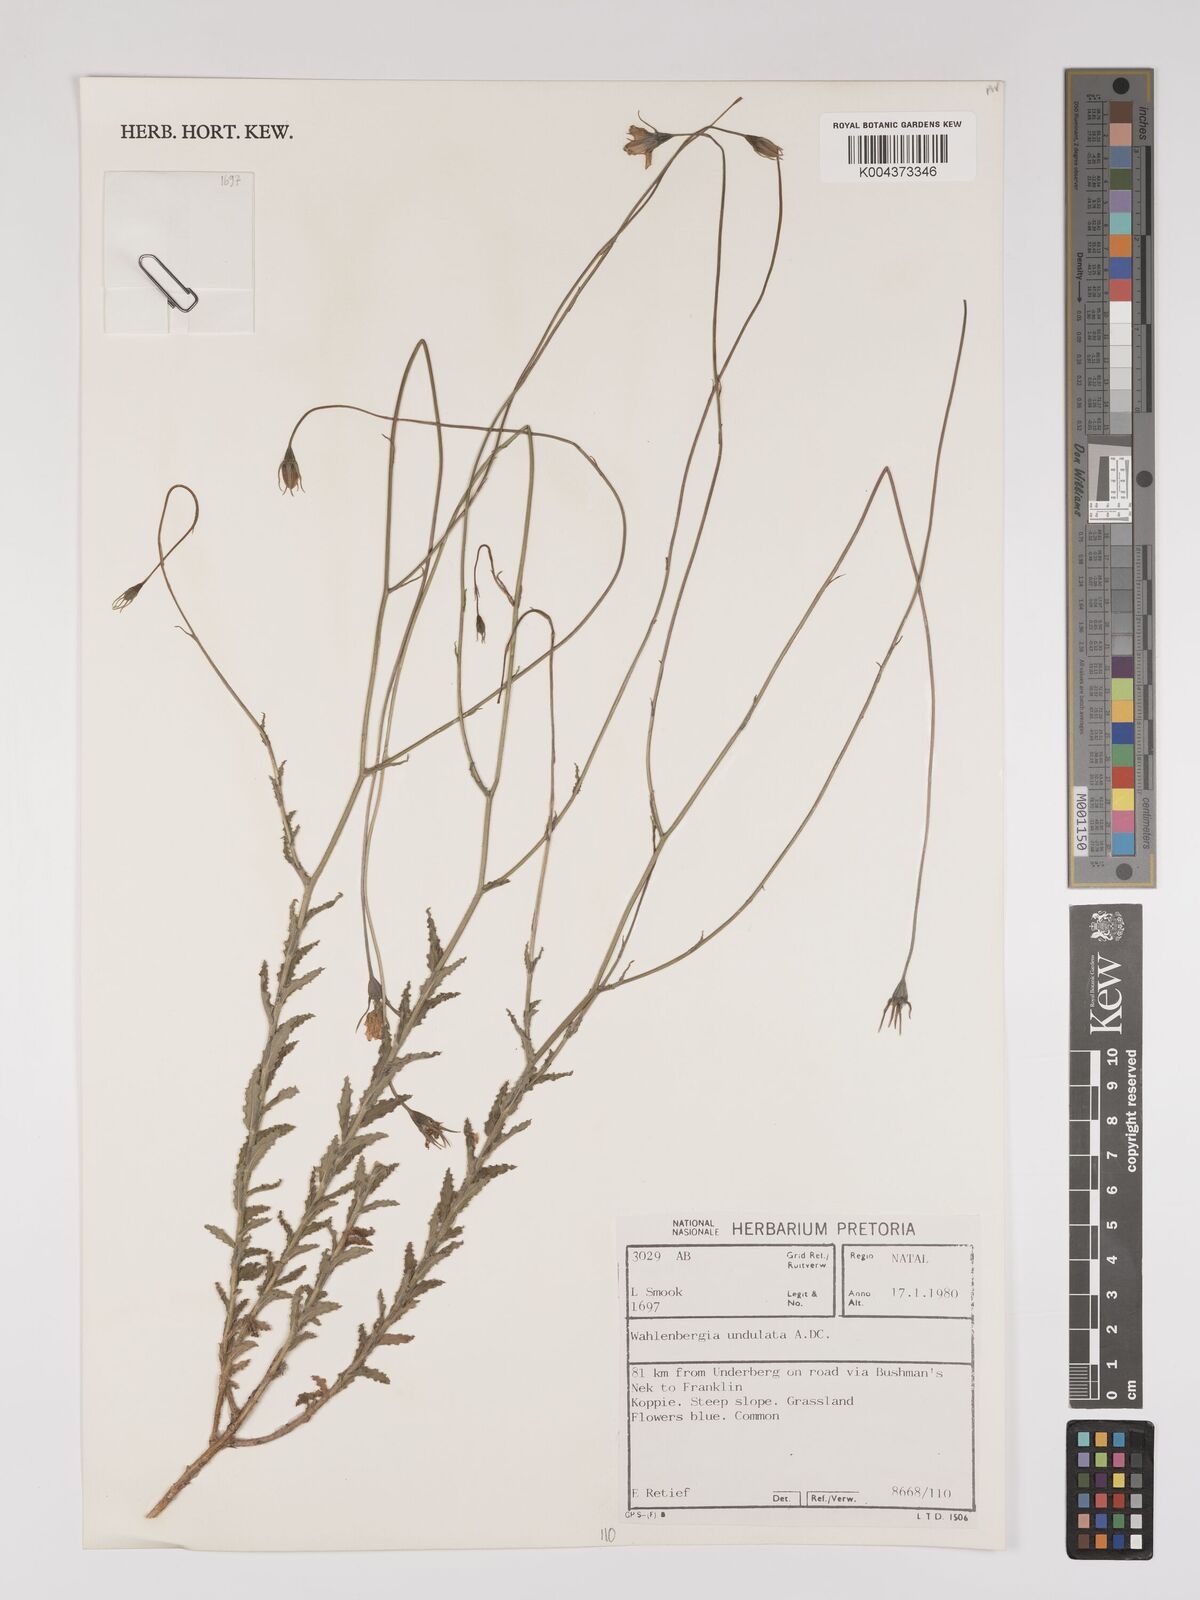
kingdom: Plantae
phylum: Tracheophyta
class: Magnoliopsida
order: Asterales
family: Campanulaceae
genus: Wahlenbergia
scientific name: Wahlenbergia undulata
